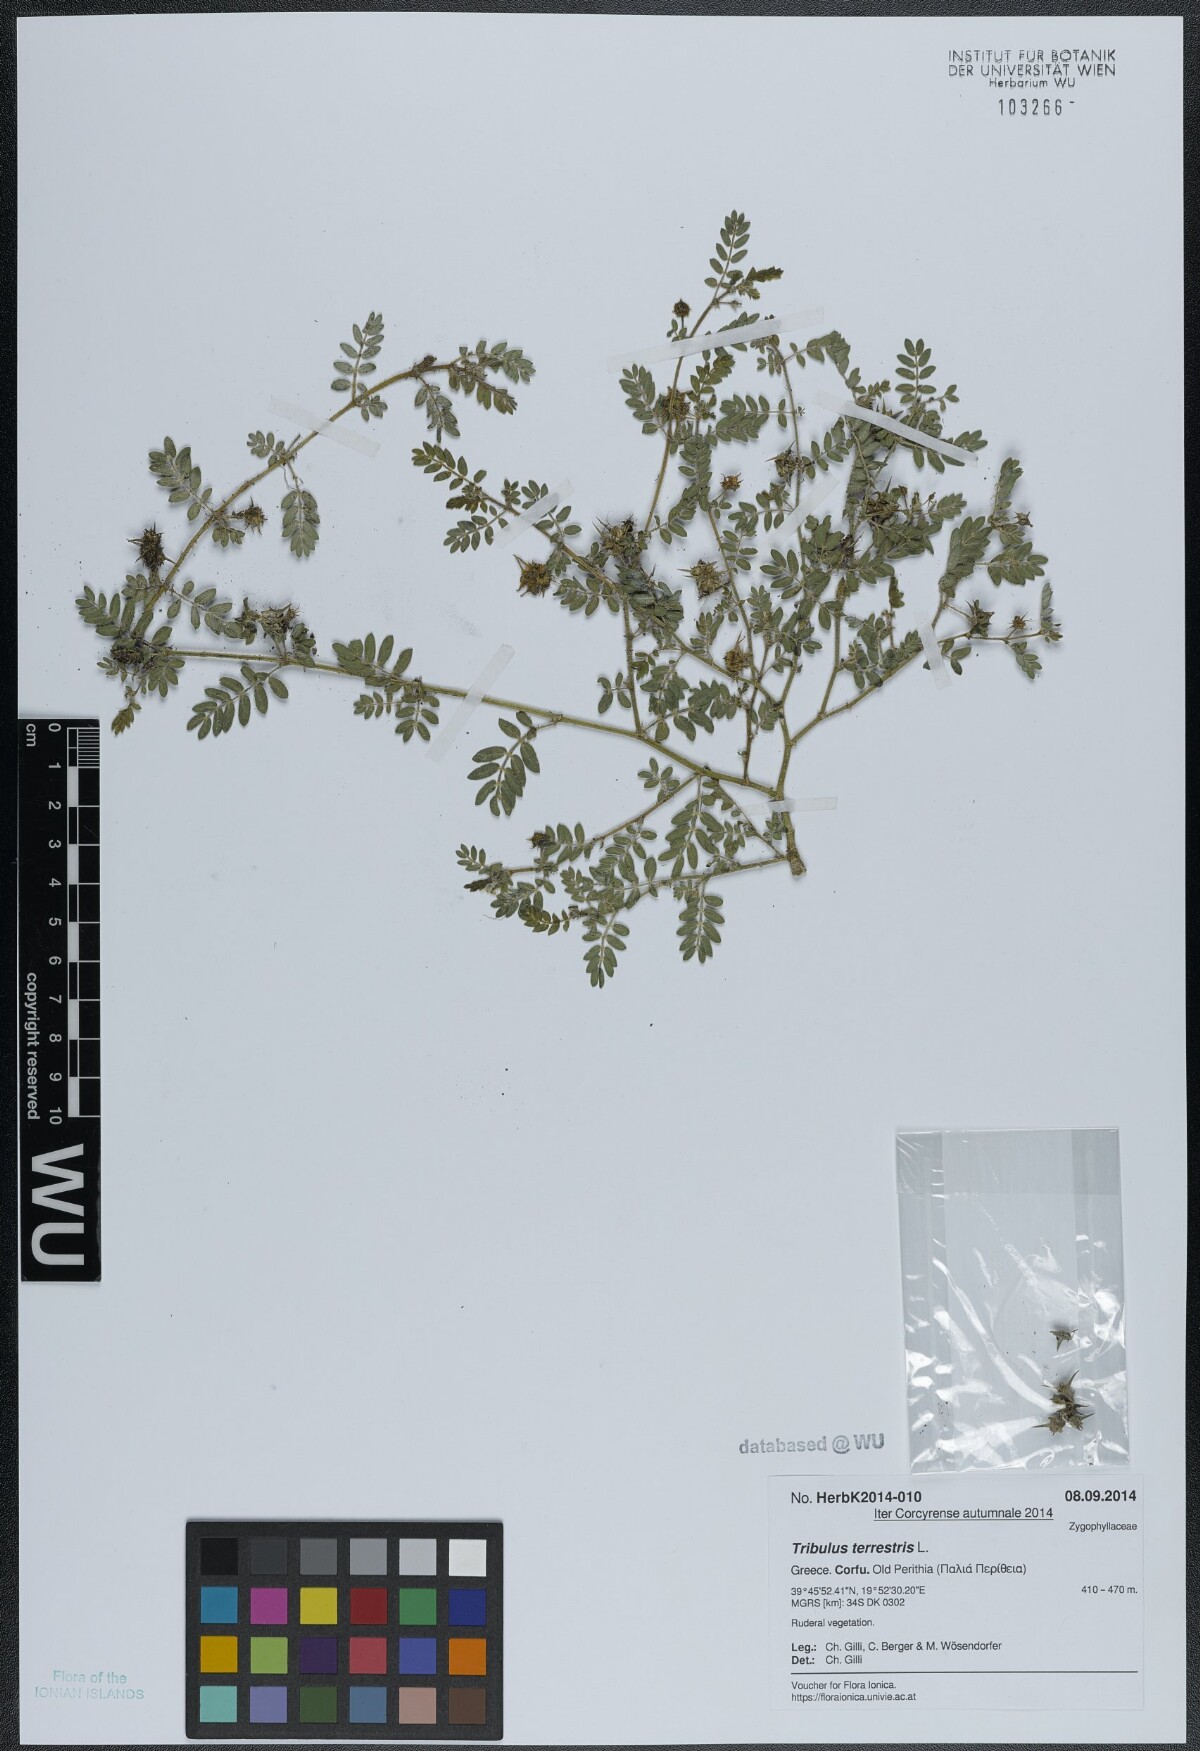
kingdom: Plantae
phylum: Tracheophyta
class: Magnoliopsida
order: Zygophyllales
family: Zygophyllaceae
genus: Tribulus
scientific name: Tribulus terrestris
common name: Puncturevine
